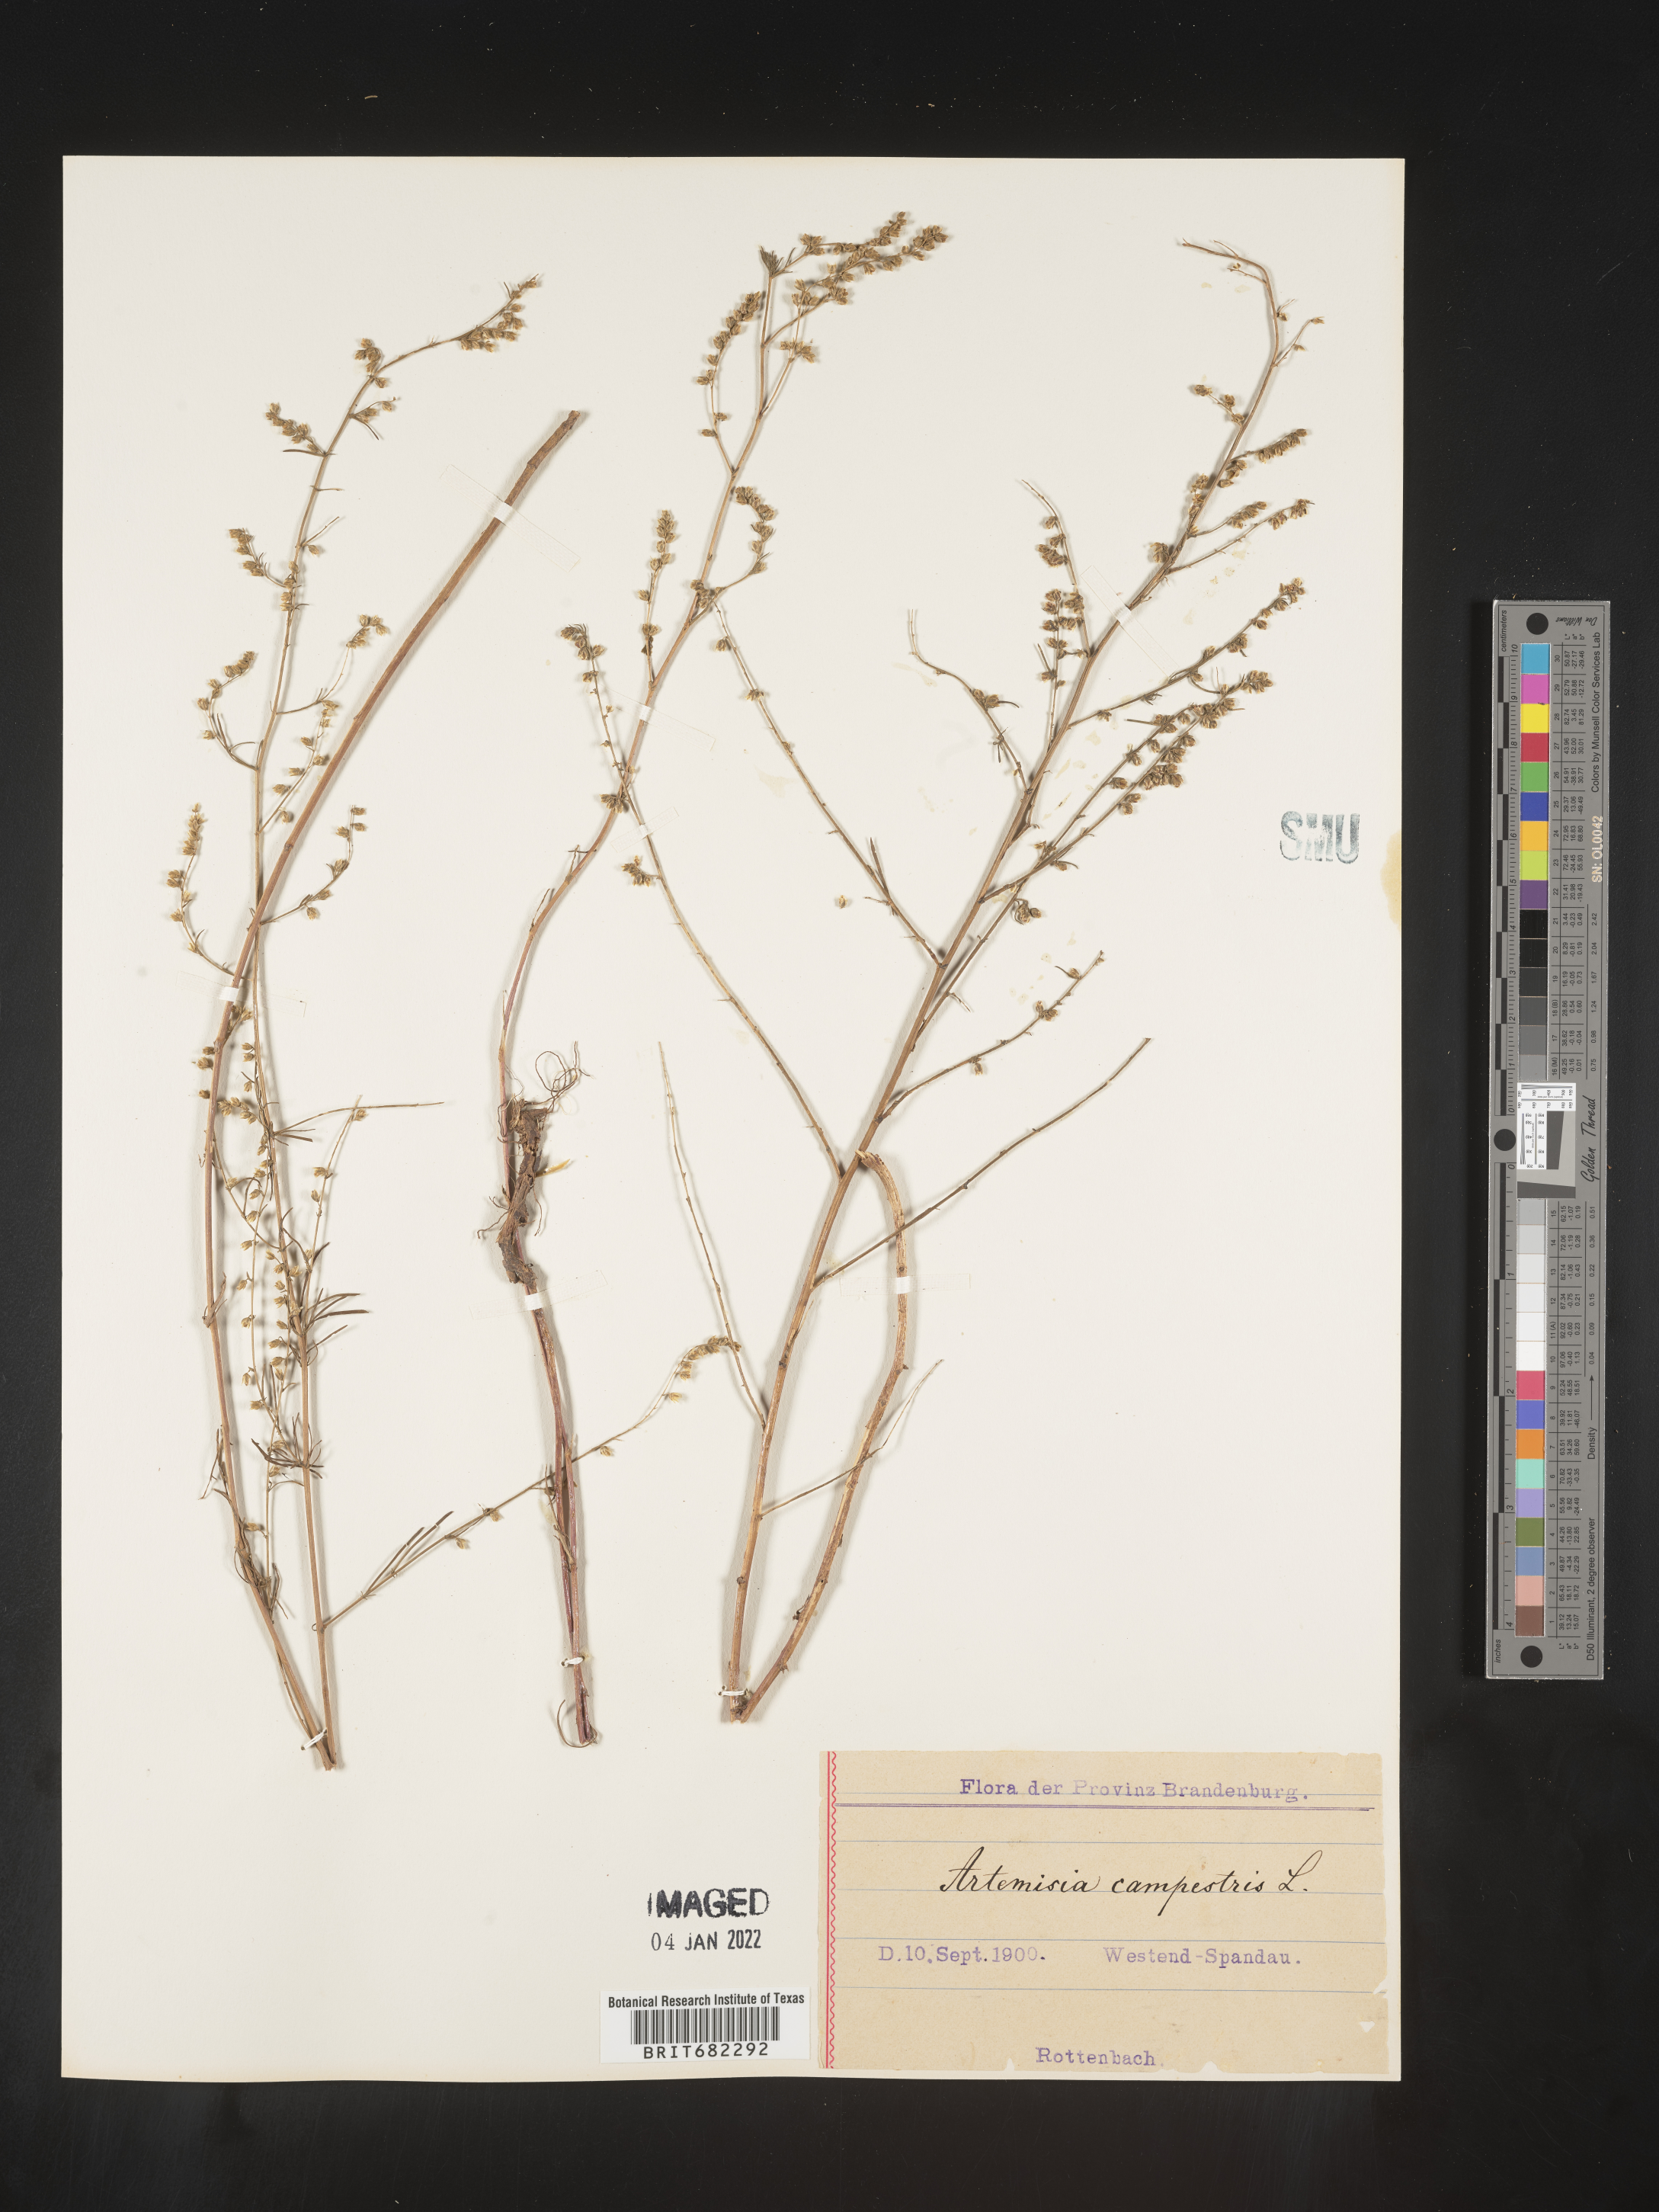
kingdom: Plantae
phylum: Tracheophyta
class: Magnoliopsida
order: Asterales
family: Asteraceae
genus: Artemisia
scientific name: Artemisia campestris
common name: Field wormwood
